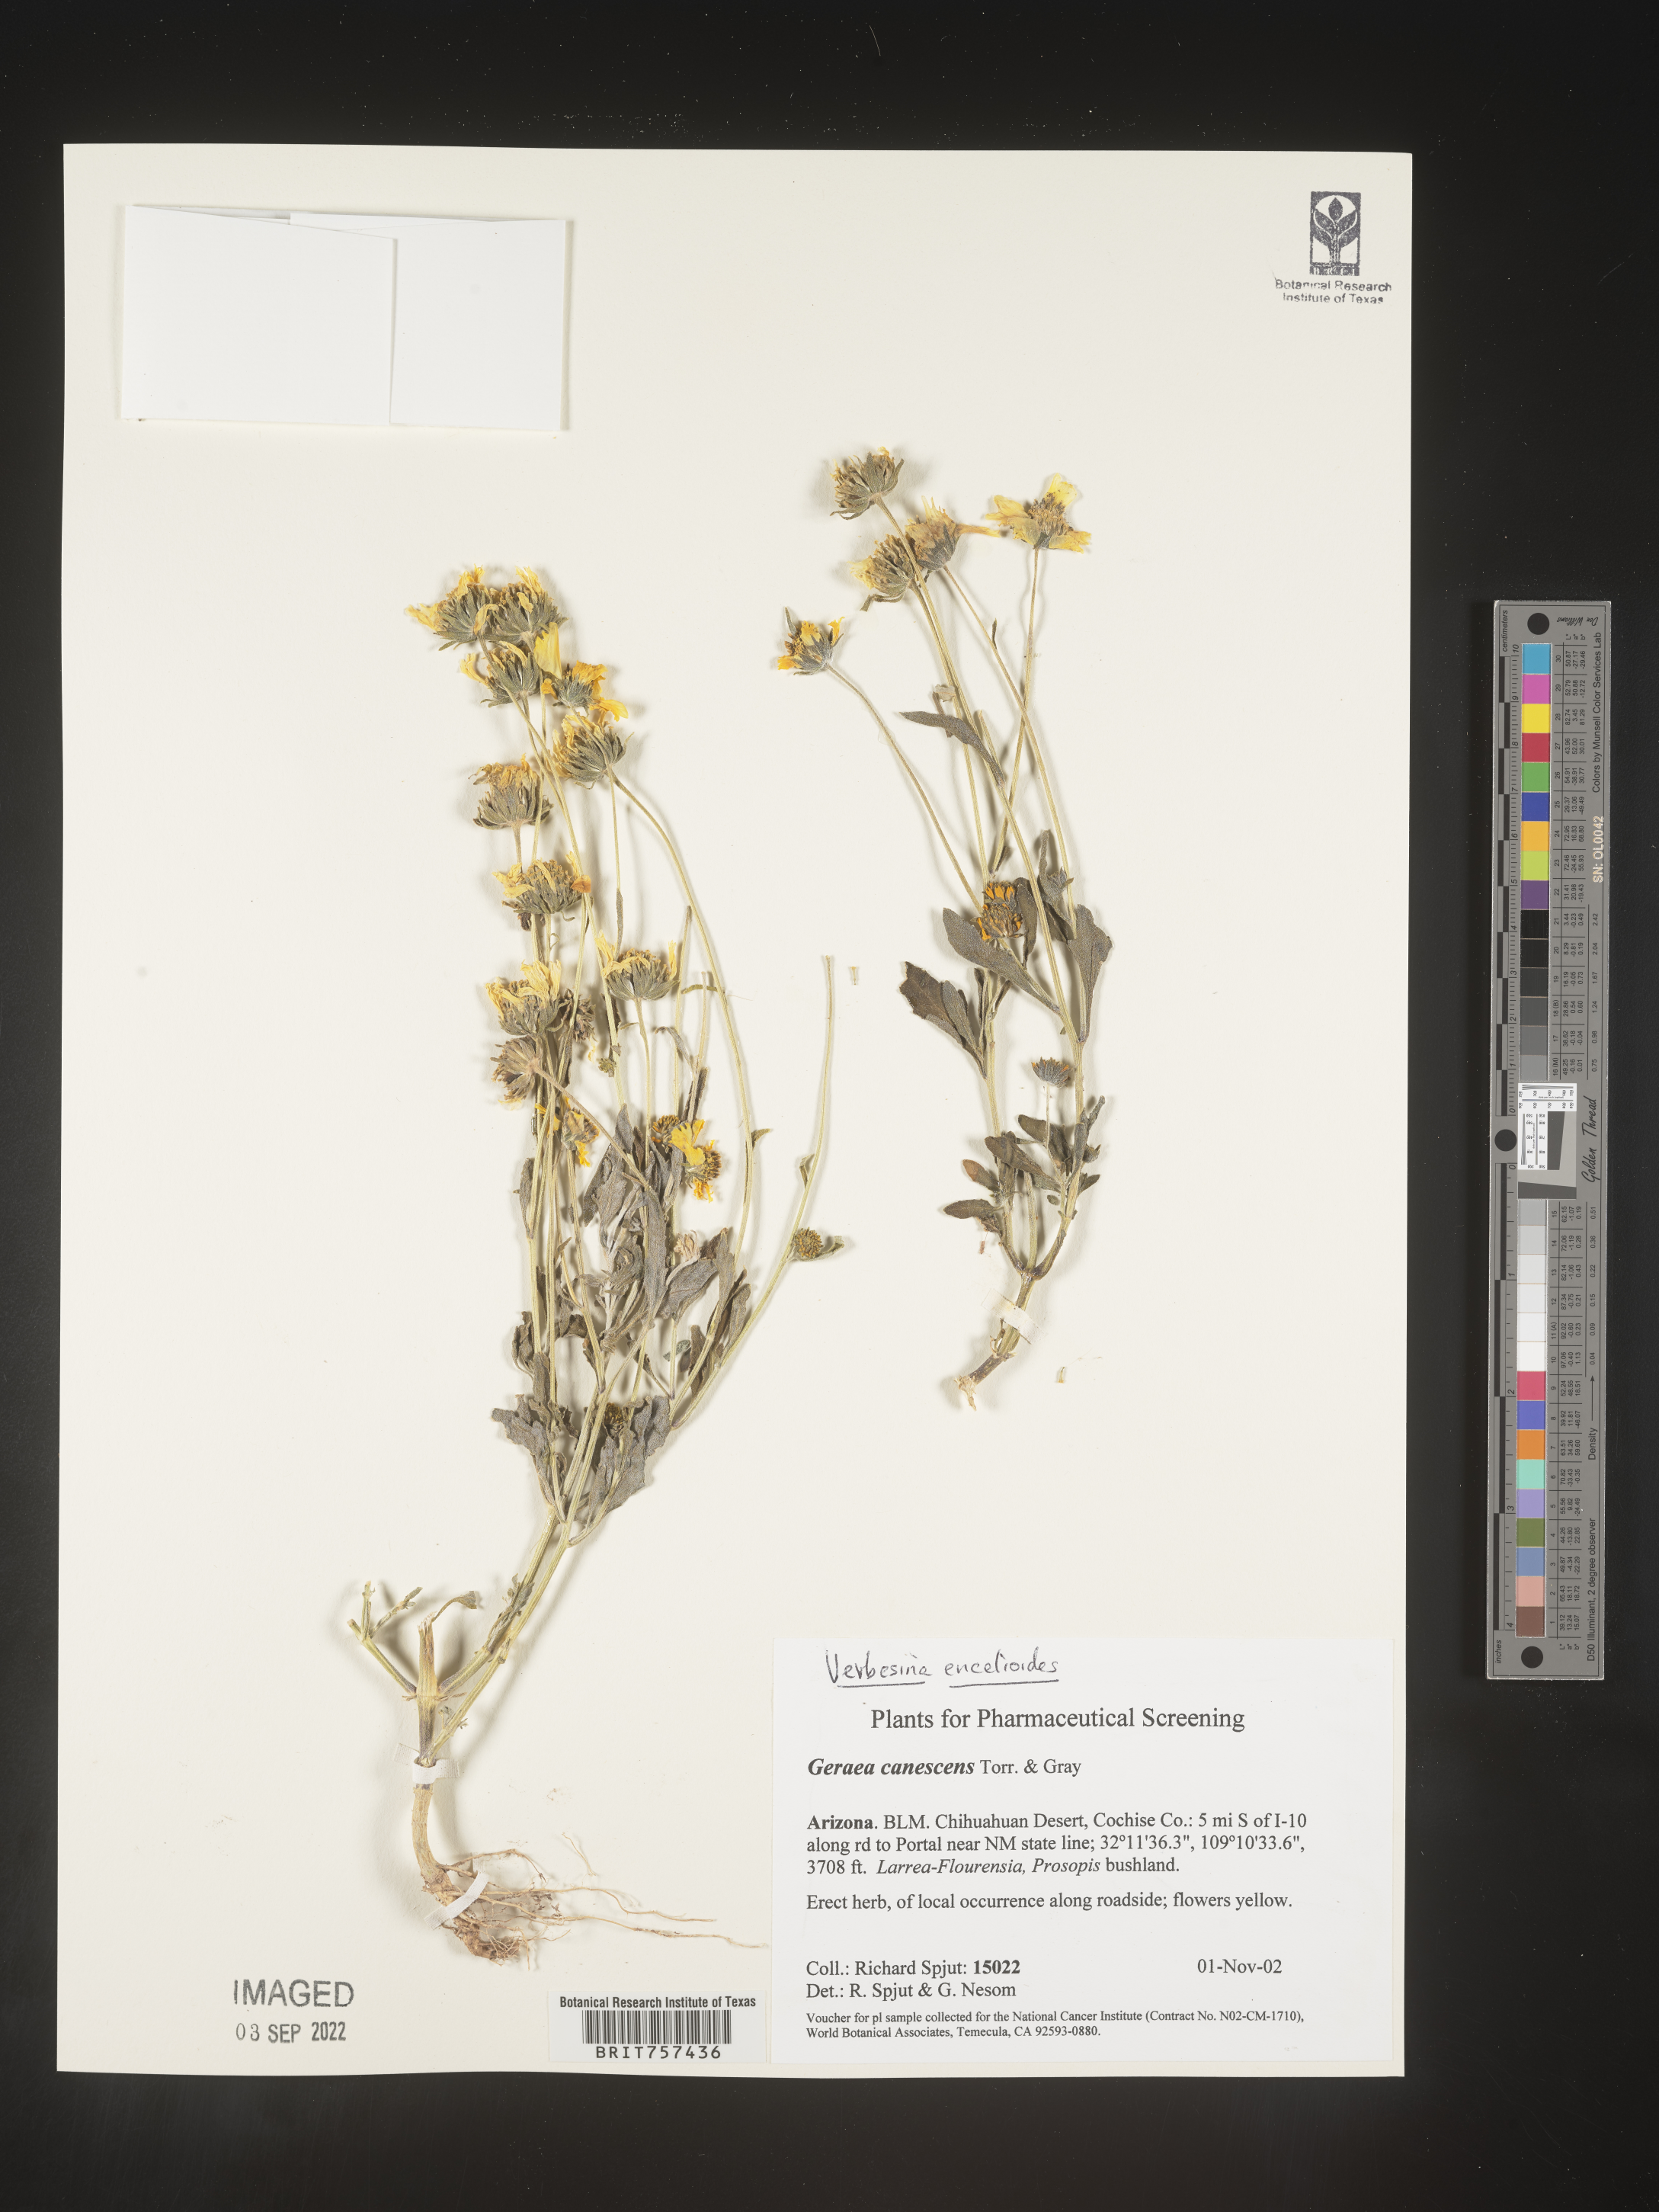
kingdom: Plantae
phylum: Tracheophyta
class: Magnoliopsida
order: Asterales
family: Asteraceae
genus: Verbesina
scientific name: Verbesina encelioides
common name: Golden crownbeard
